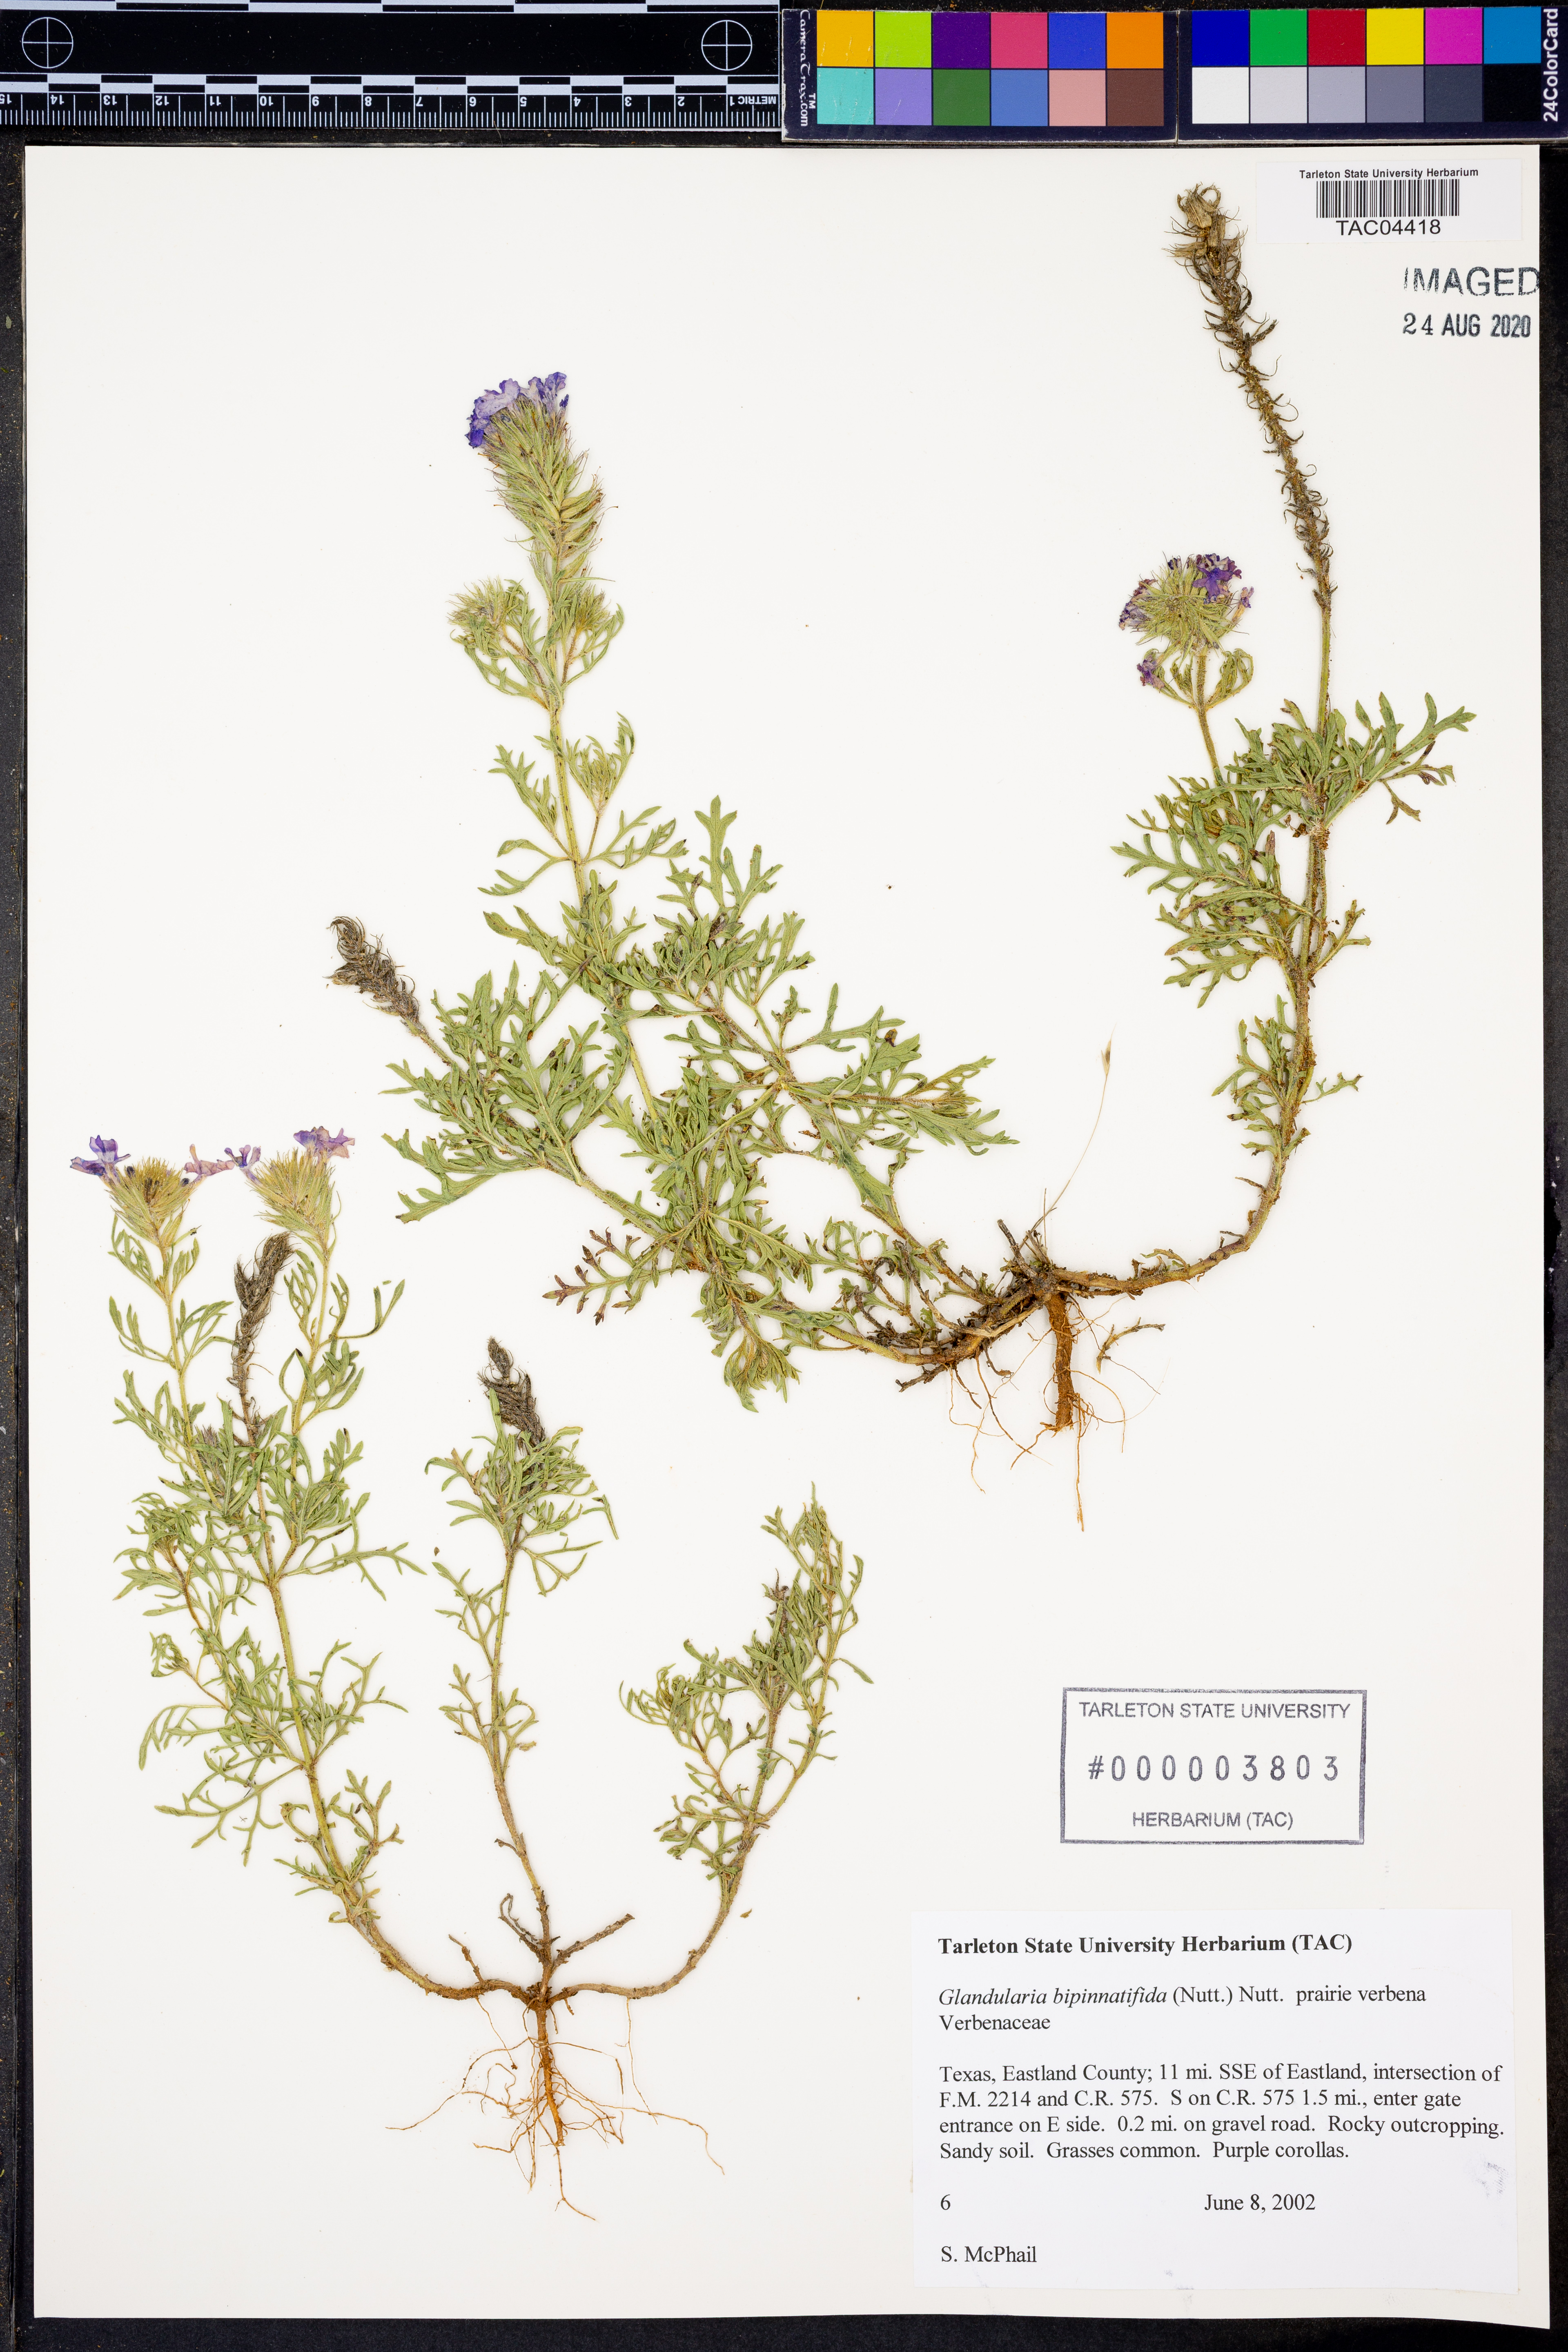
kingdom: Plantae
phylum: Tracheophyta
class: Magnoliopsida
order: Lamiales
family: Verbenaceae
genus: Verbena
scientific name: Verbena bipinnatifida
